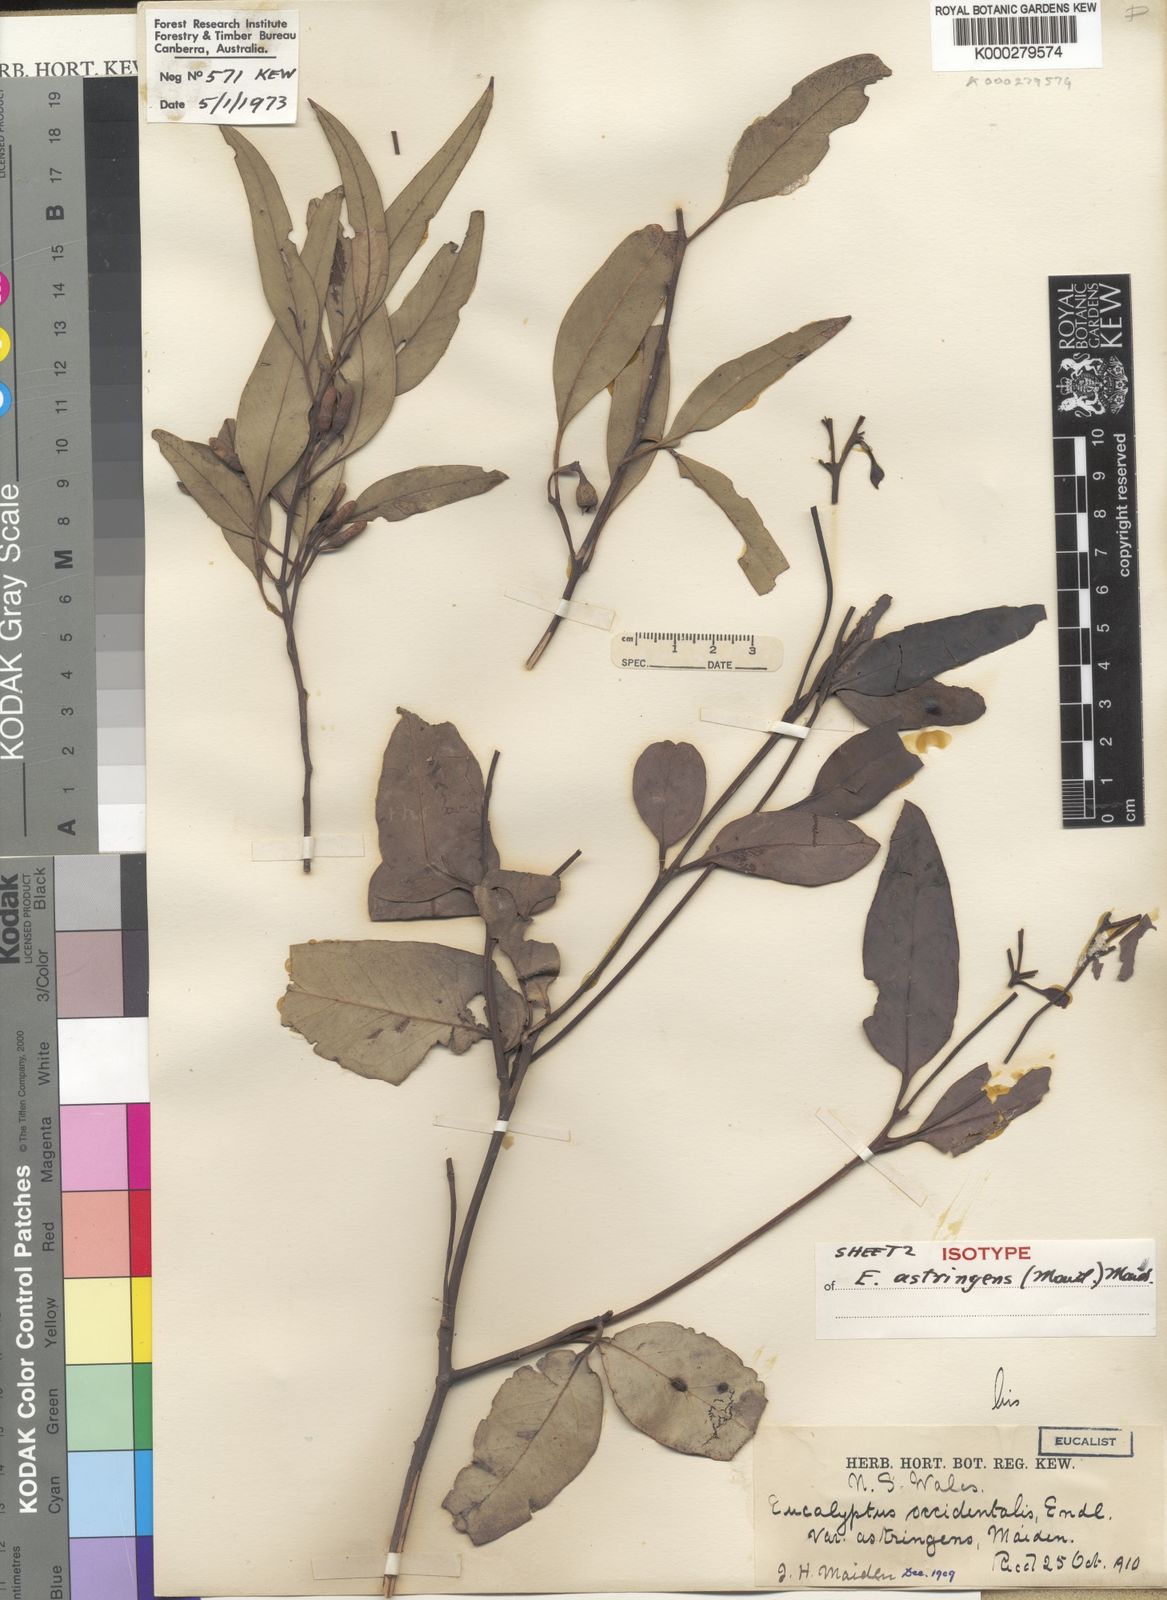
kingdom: Plantae
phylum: Tracheophyta
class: Magnoliopsida
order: Myrtales
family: Myrtaceae
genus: Eucalyptus
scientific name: Eucalyptus astringens
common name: Brown mallet
